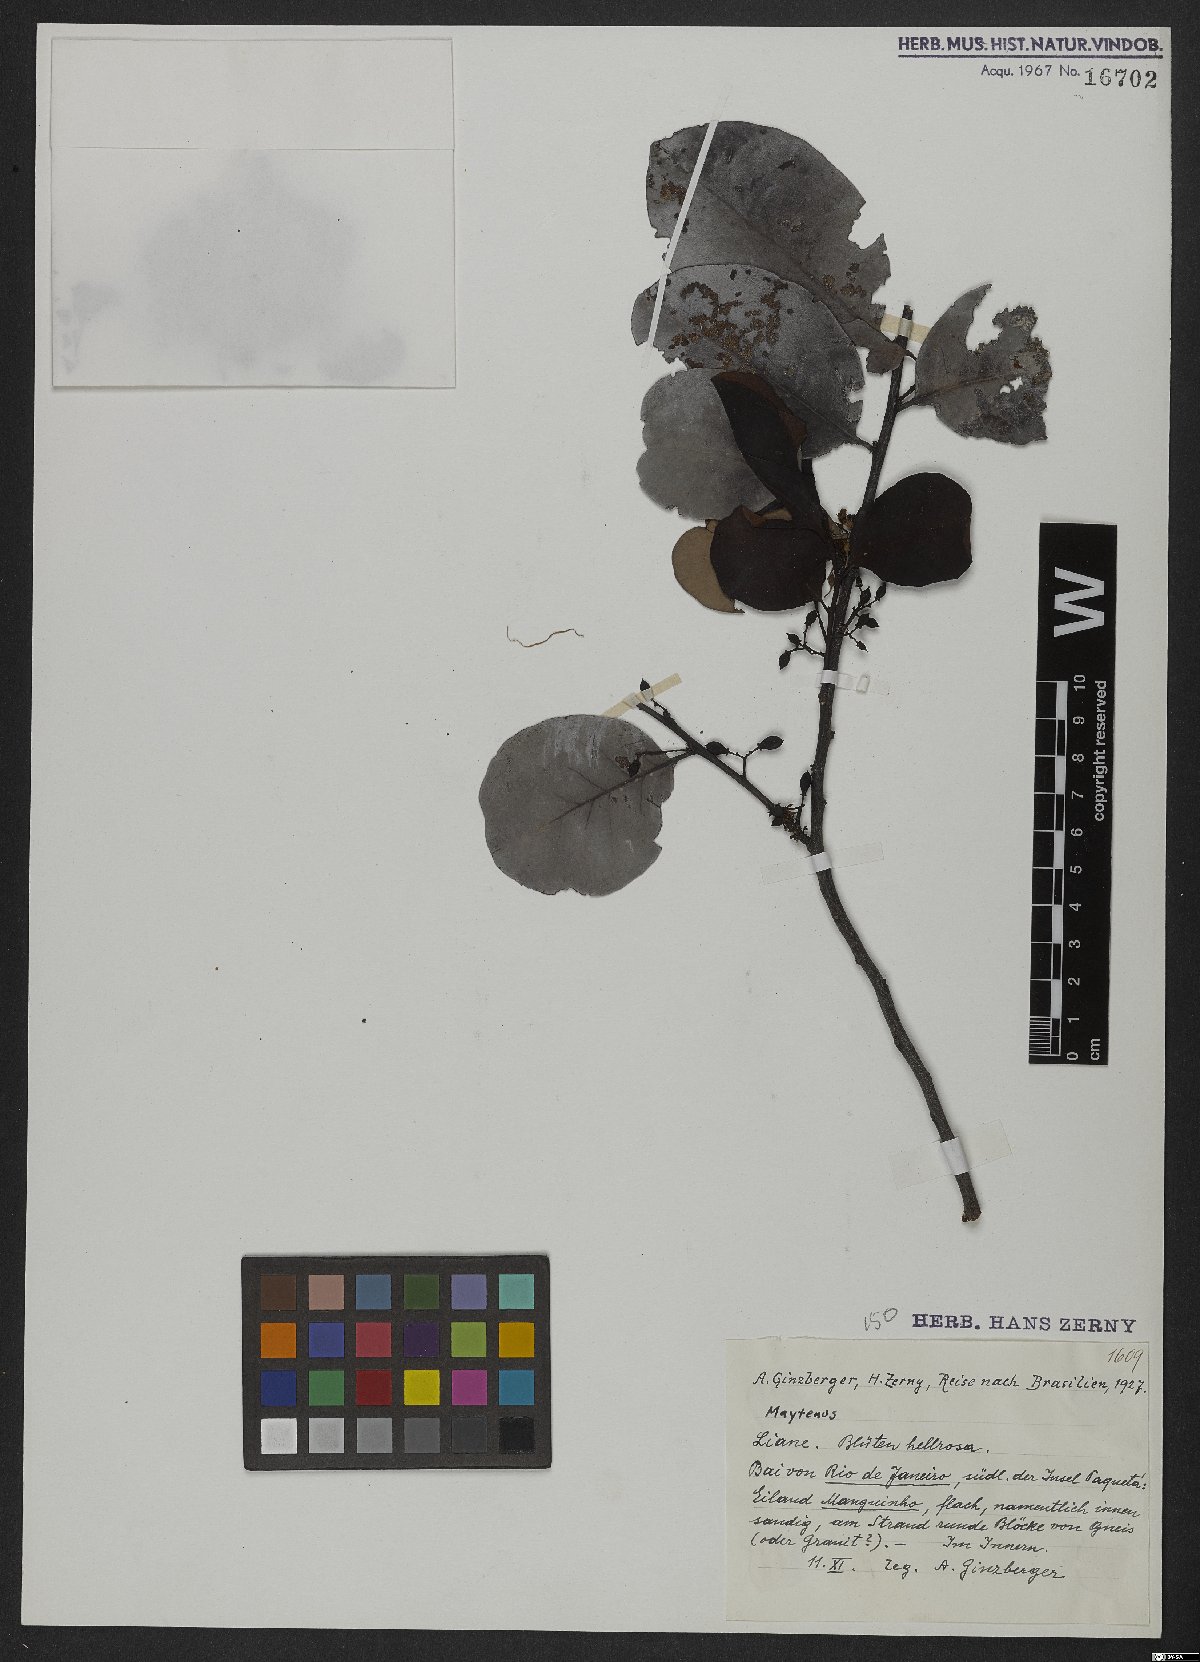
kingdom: Plantae
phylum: Tracheophyta
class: Magnoliopsida
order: Celastrales
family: Celastraceae
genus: Maytenus
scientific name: Maytenus
